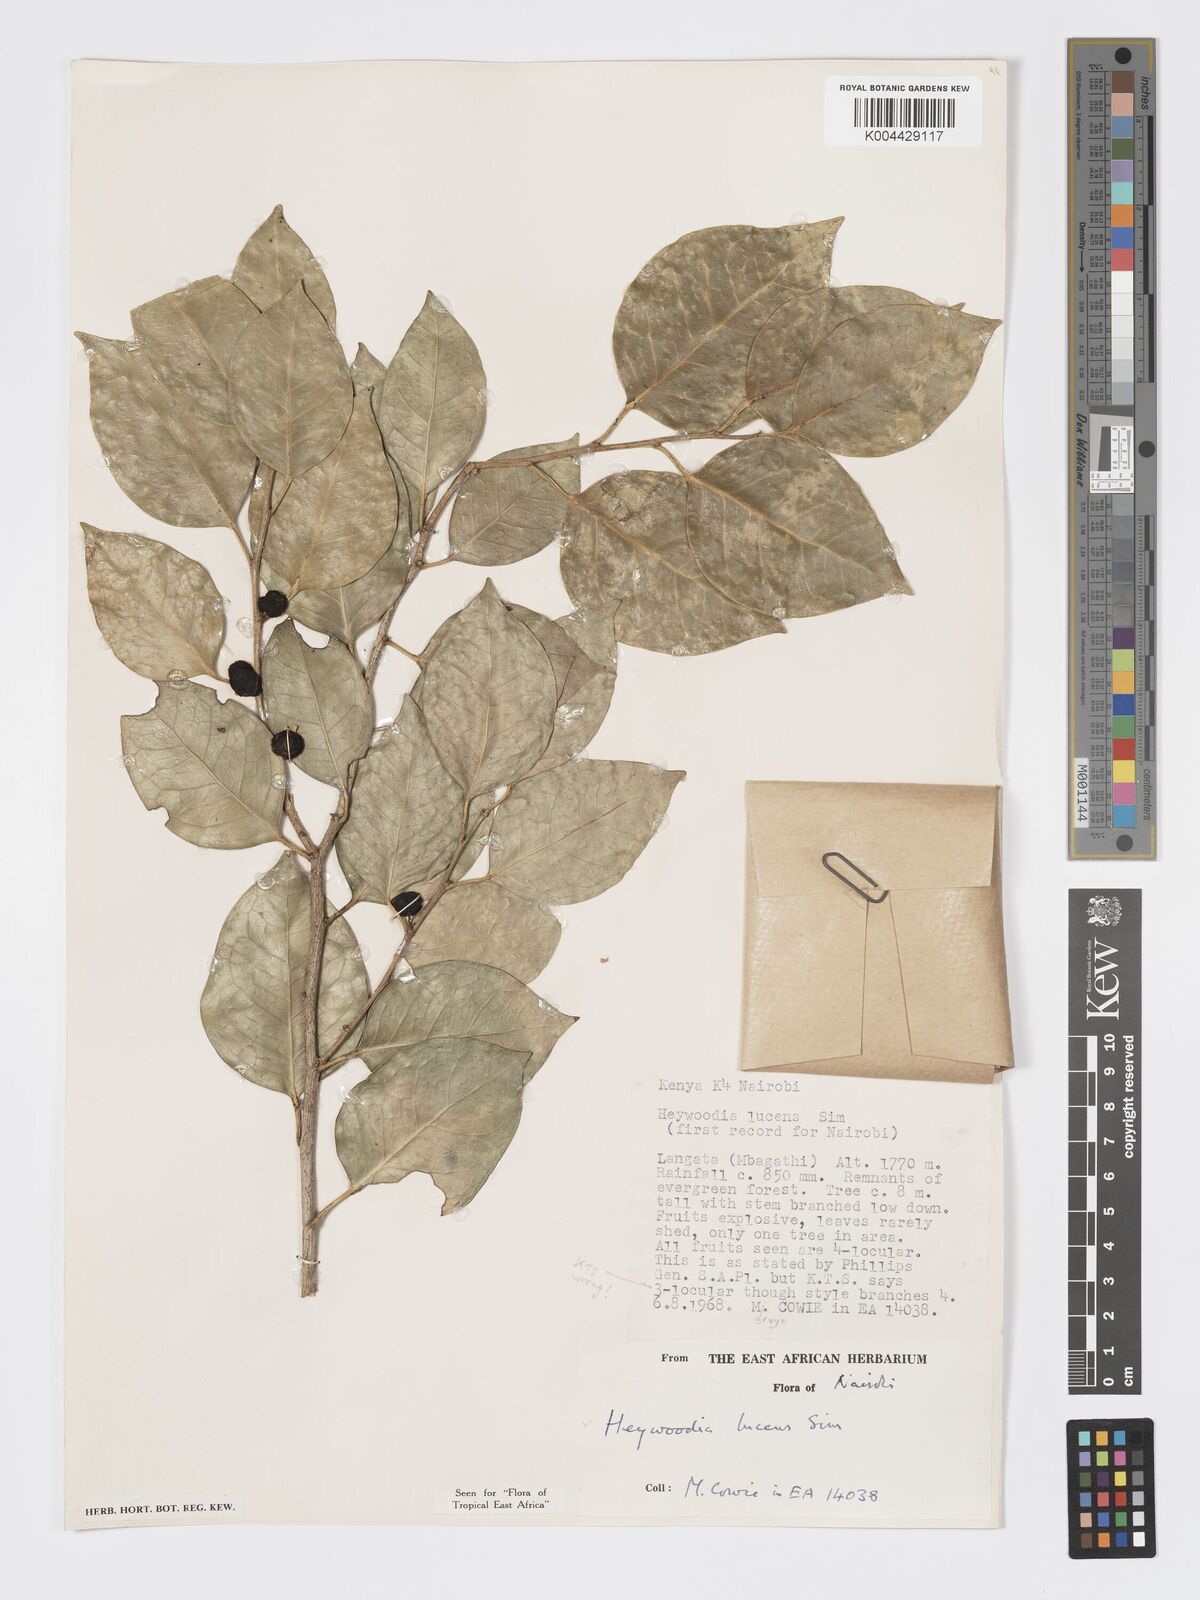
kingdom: Plantae
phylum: Tracheophyta
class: Magnoliopsida
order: Malpighiales
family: Phyllanthaceae
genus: Heywoodia
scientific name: Heywoodia lucens
